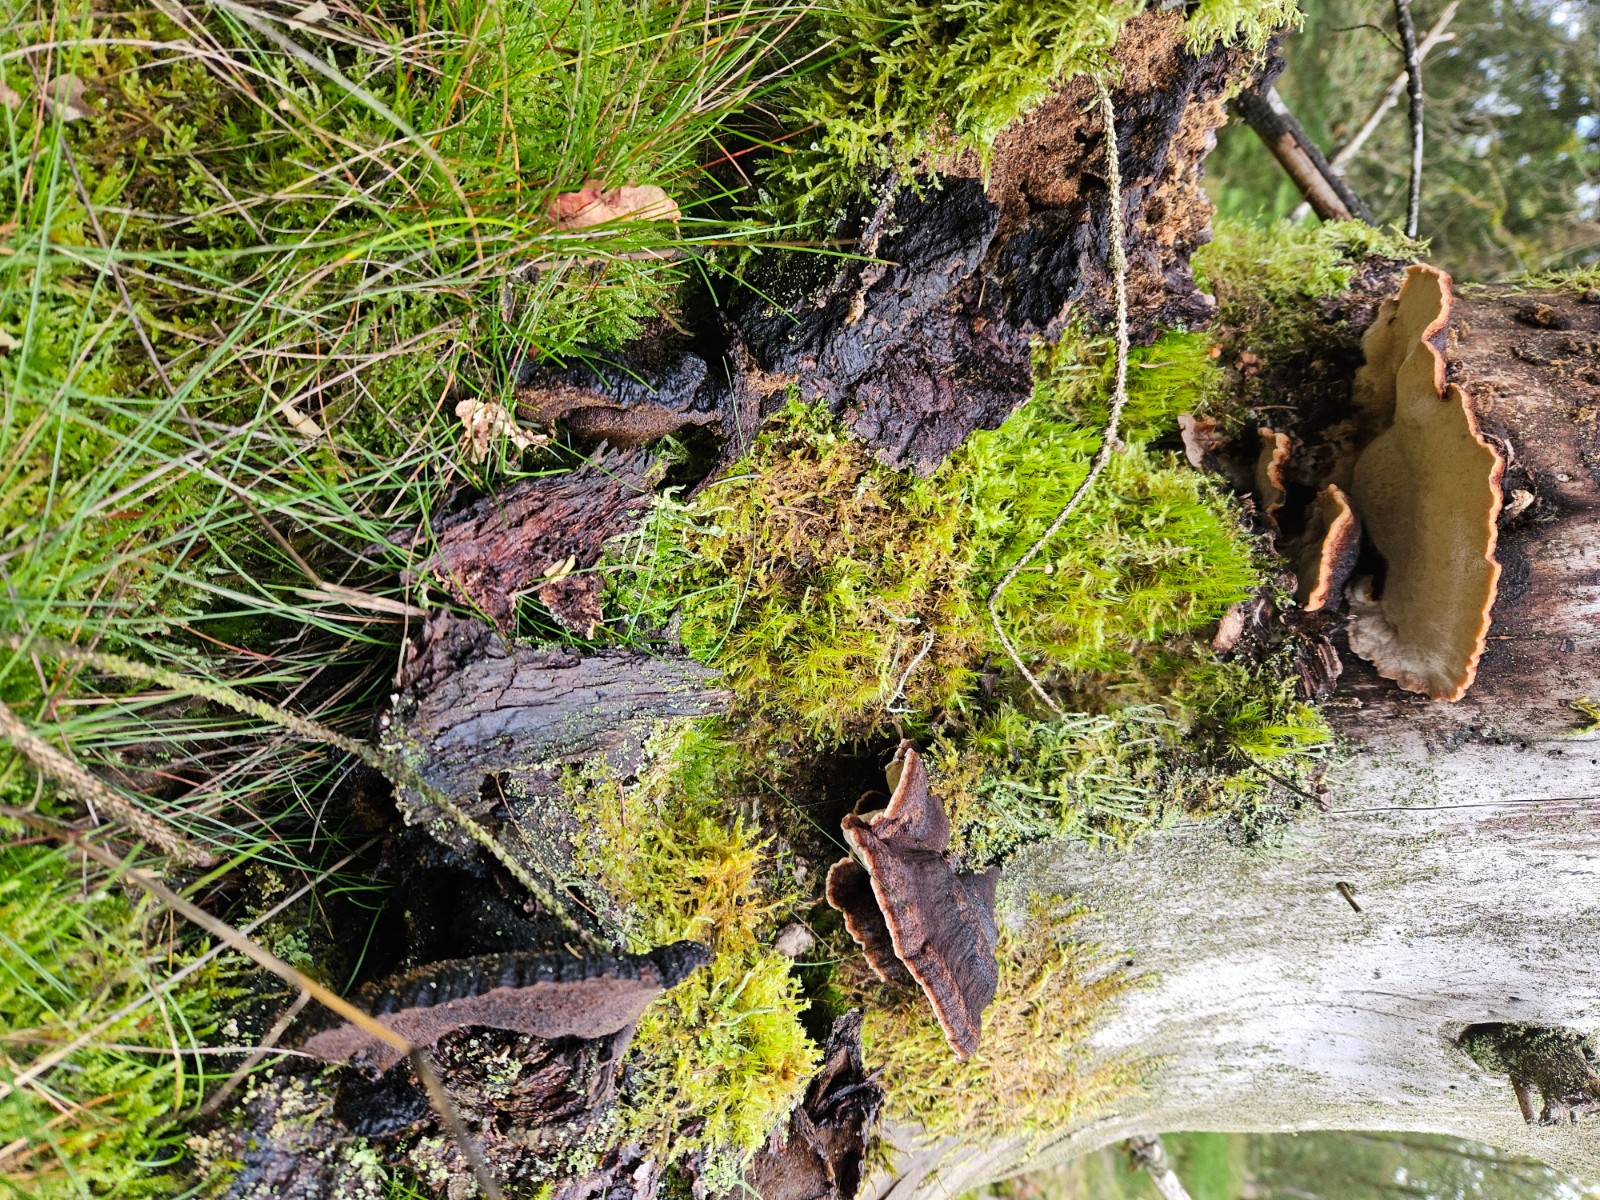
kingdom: Fungi
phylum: Basidiomycota
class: Agaricomycetes
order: Polyporales
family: Ischnodermataceae
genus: Ischnoderma
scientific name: Ischnoderma benzoinum
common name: gran-tjæreporesvamp
